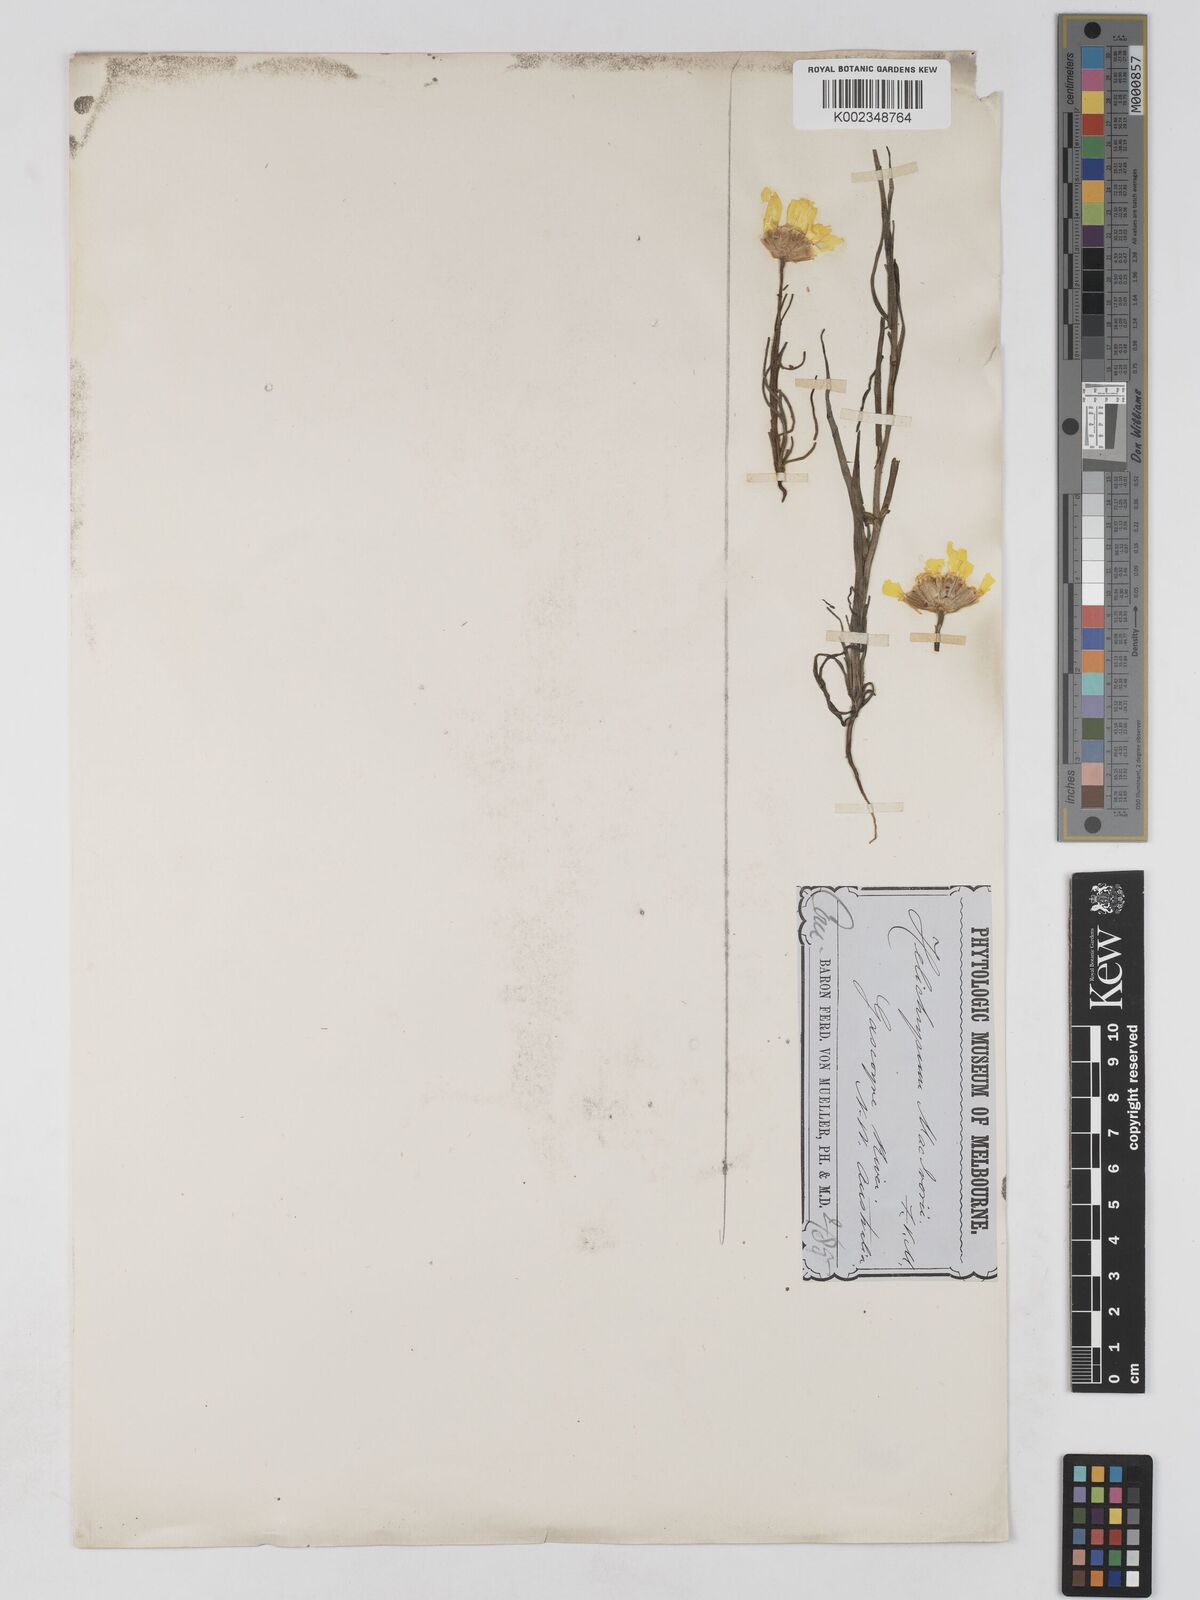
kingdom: Plantae
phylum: Tracheophyta
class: Magnoliopsida
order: Asterales
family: Asteraceae
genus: Schoenia
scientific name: Schoenia macivorii
